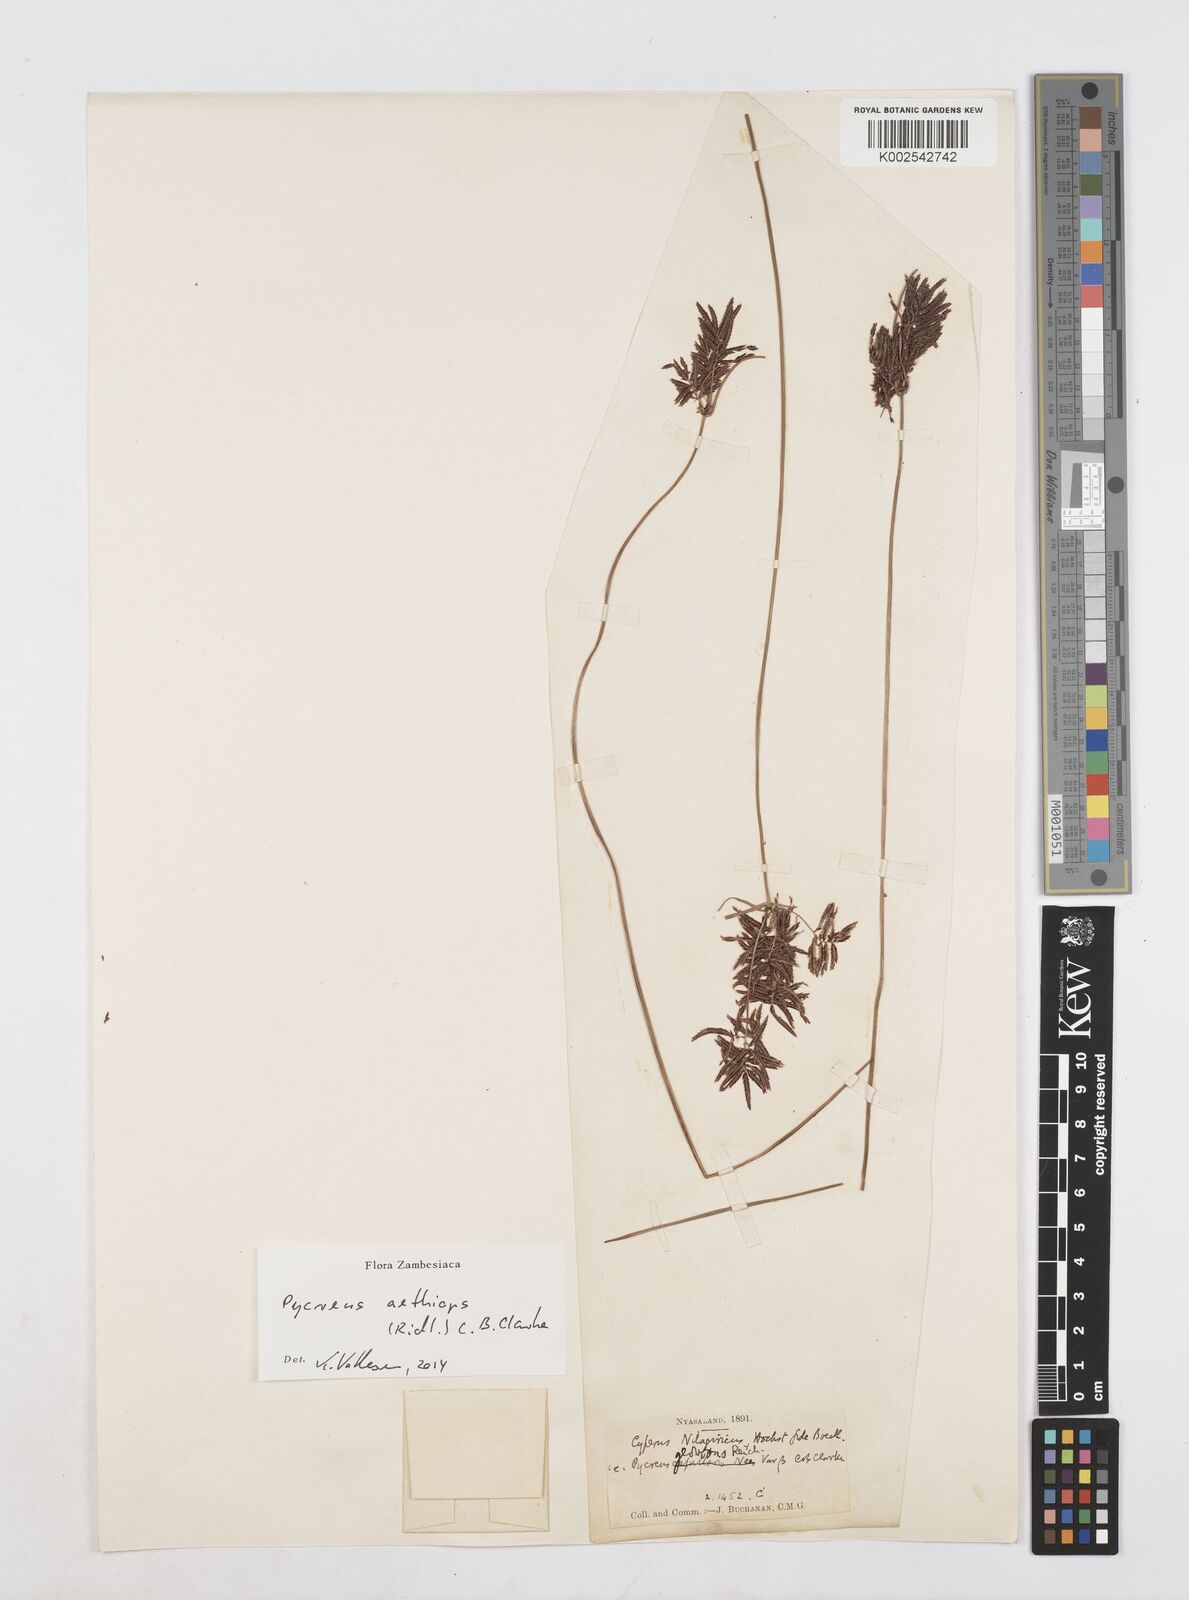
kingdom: Plantae
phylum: Tracheophyta
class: Liliopsida
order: Poales
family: Cyperaceae
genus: Cyperus
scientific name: Cyperus aethiops
